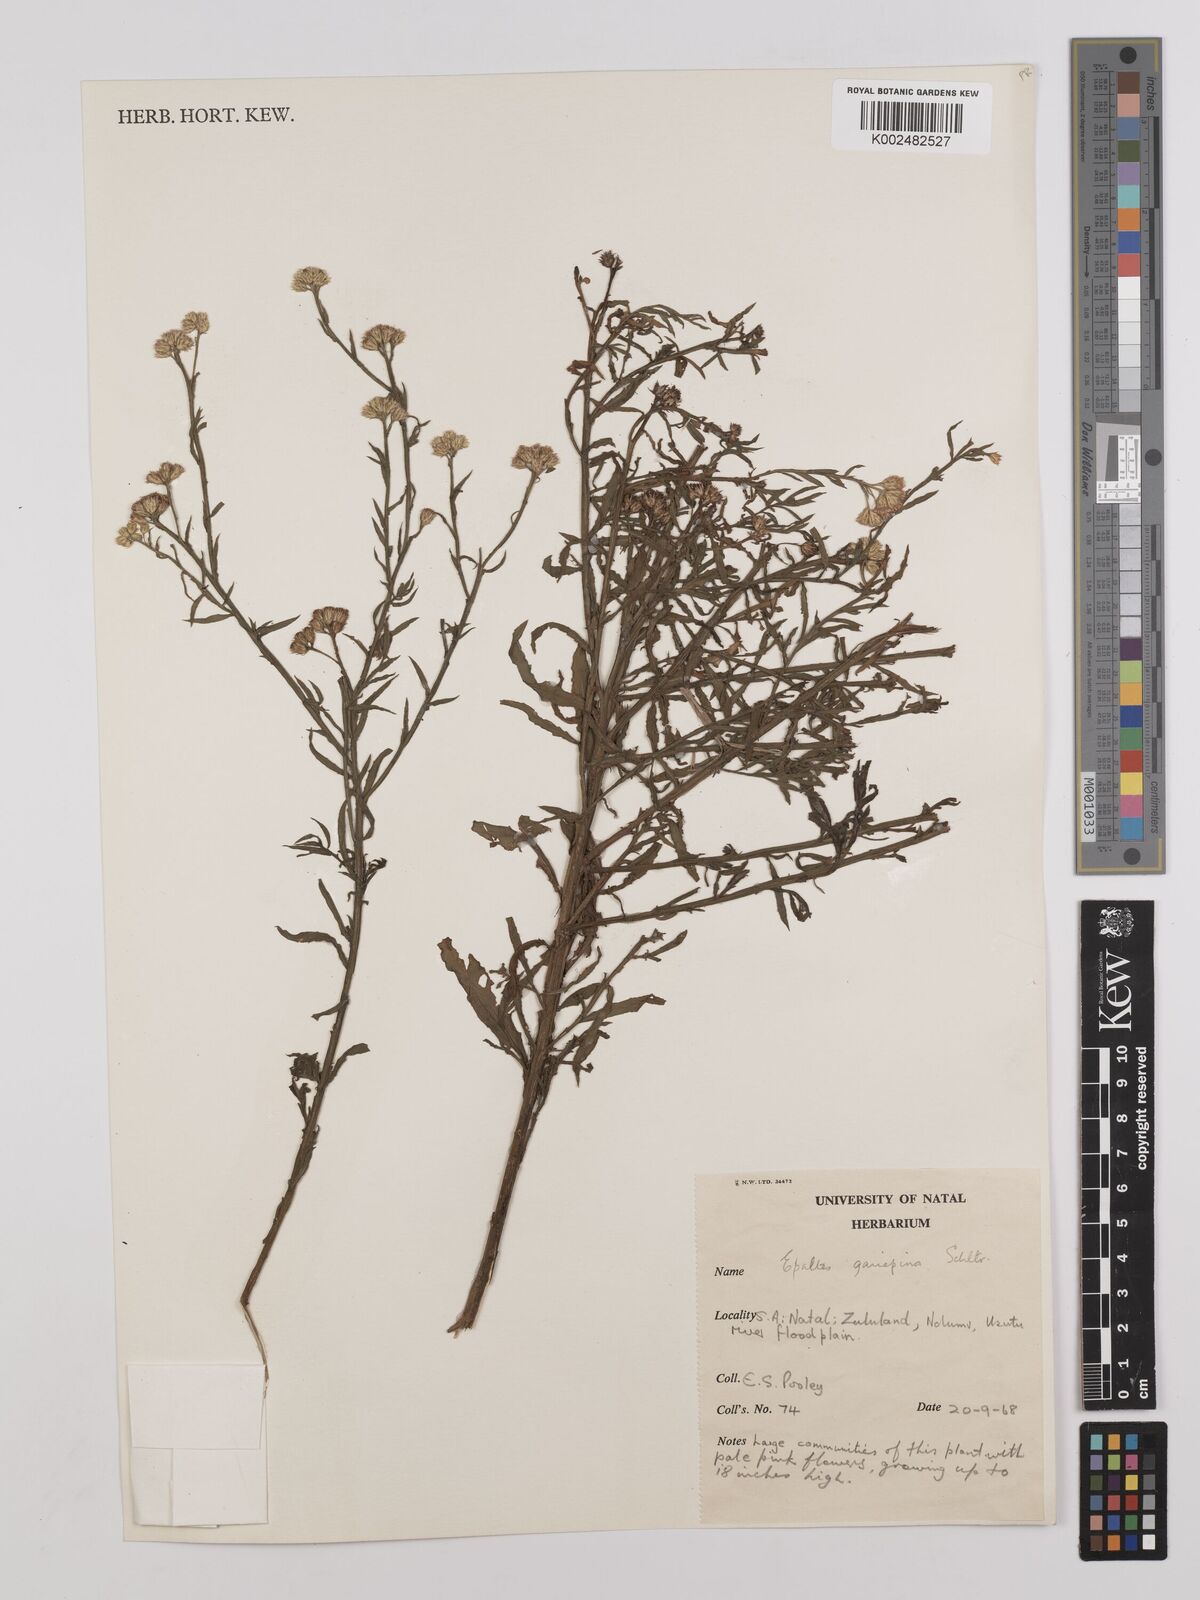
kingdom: Plantae
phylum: Tracheophyta
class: Magnoliopsida
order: Asterales
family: Asteraceae
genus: Litogyne
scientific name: Litogyne gariepina
